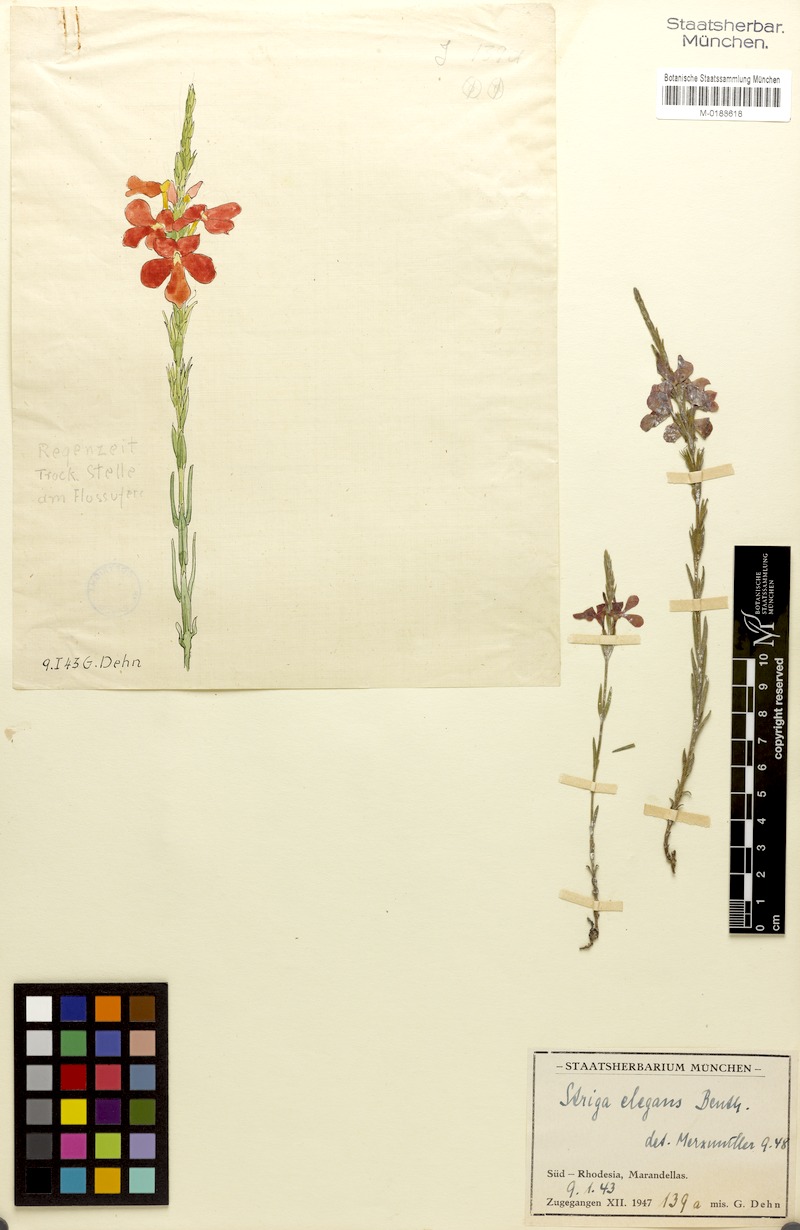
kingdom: Plantae
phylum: Tracheophyta
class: Magnoliopsida
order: Lamiales
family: Orobanchaceae
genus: Striga
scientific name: Striga elegans
